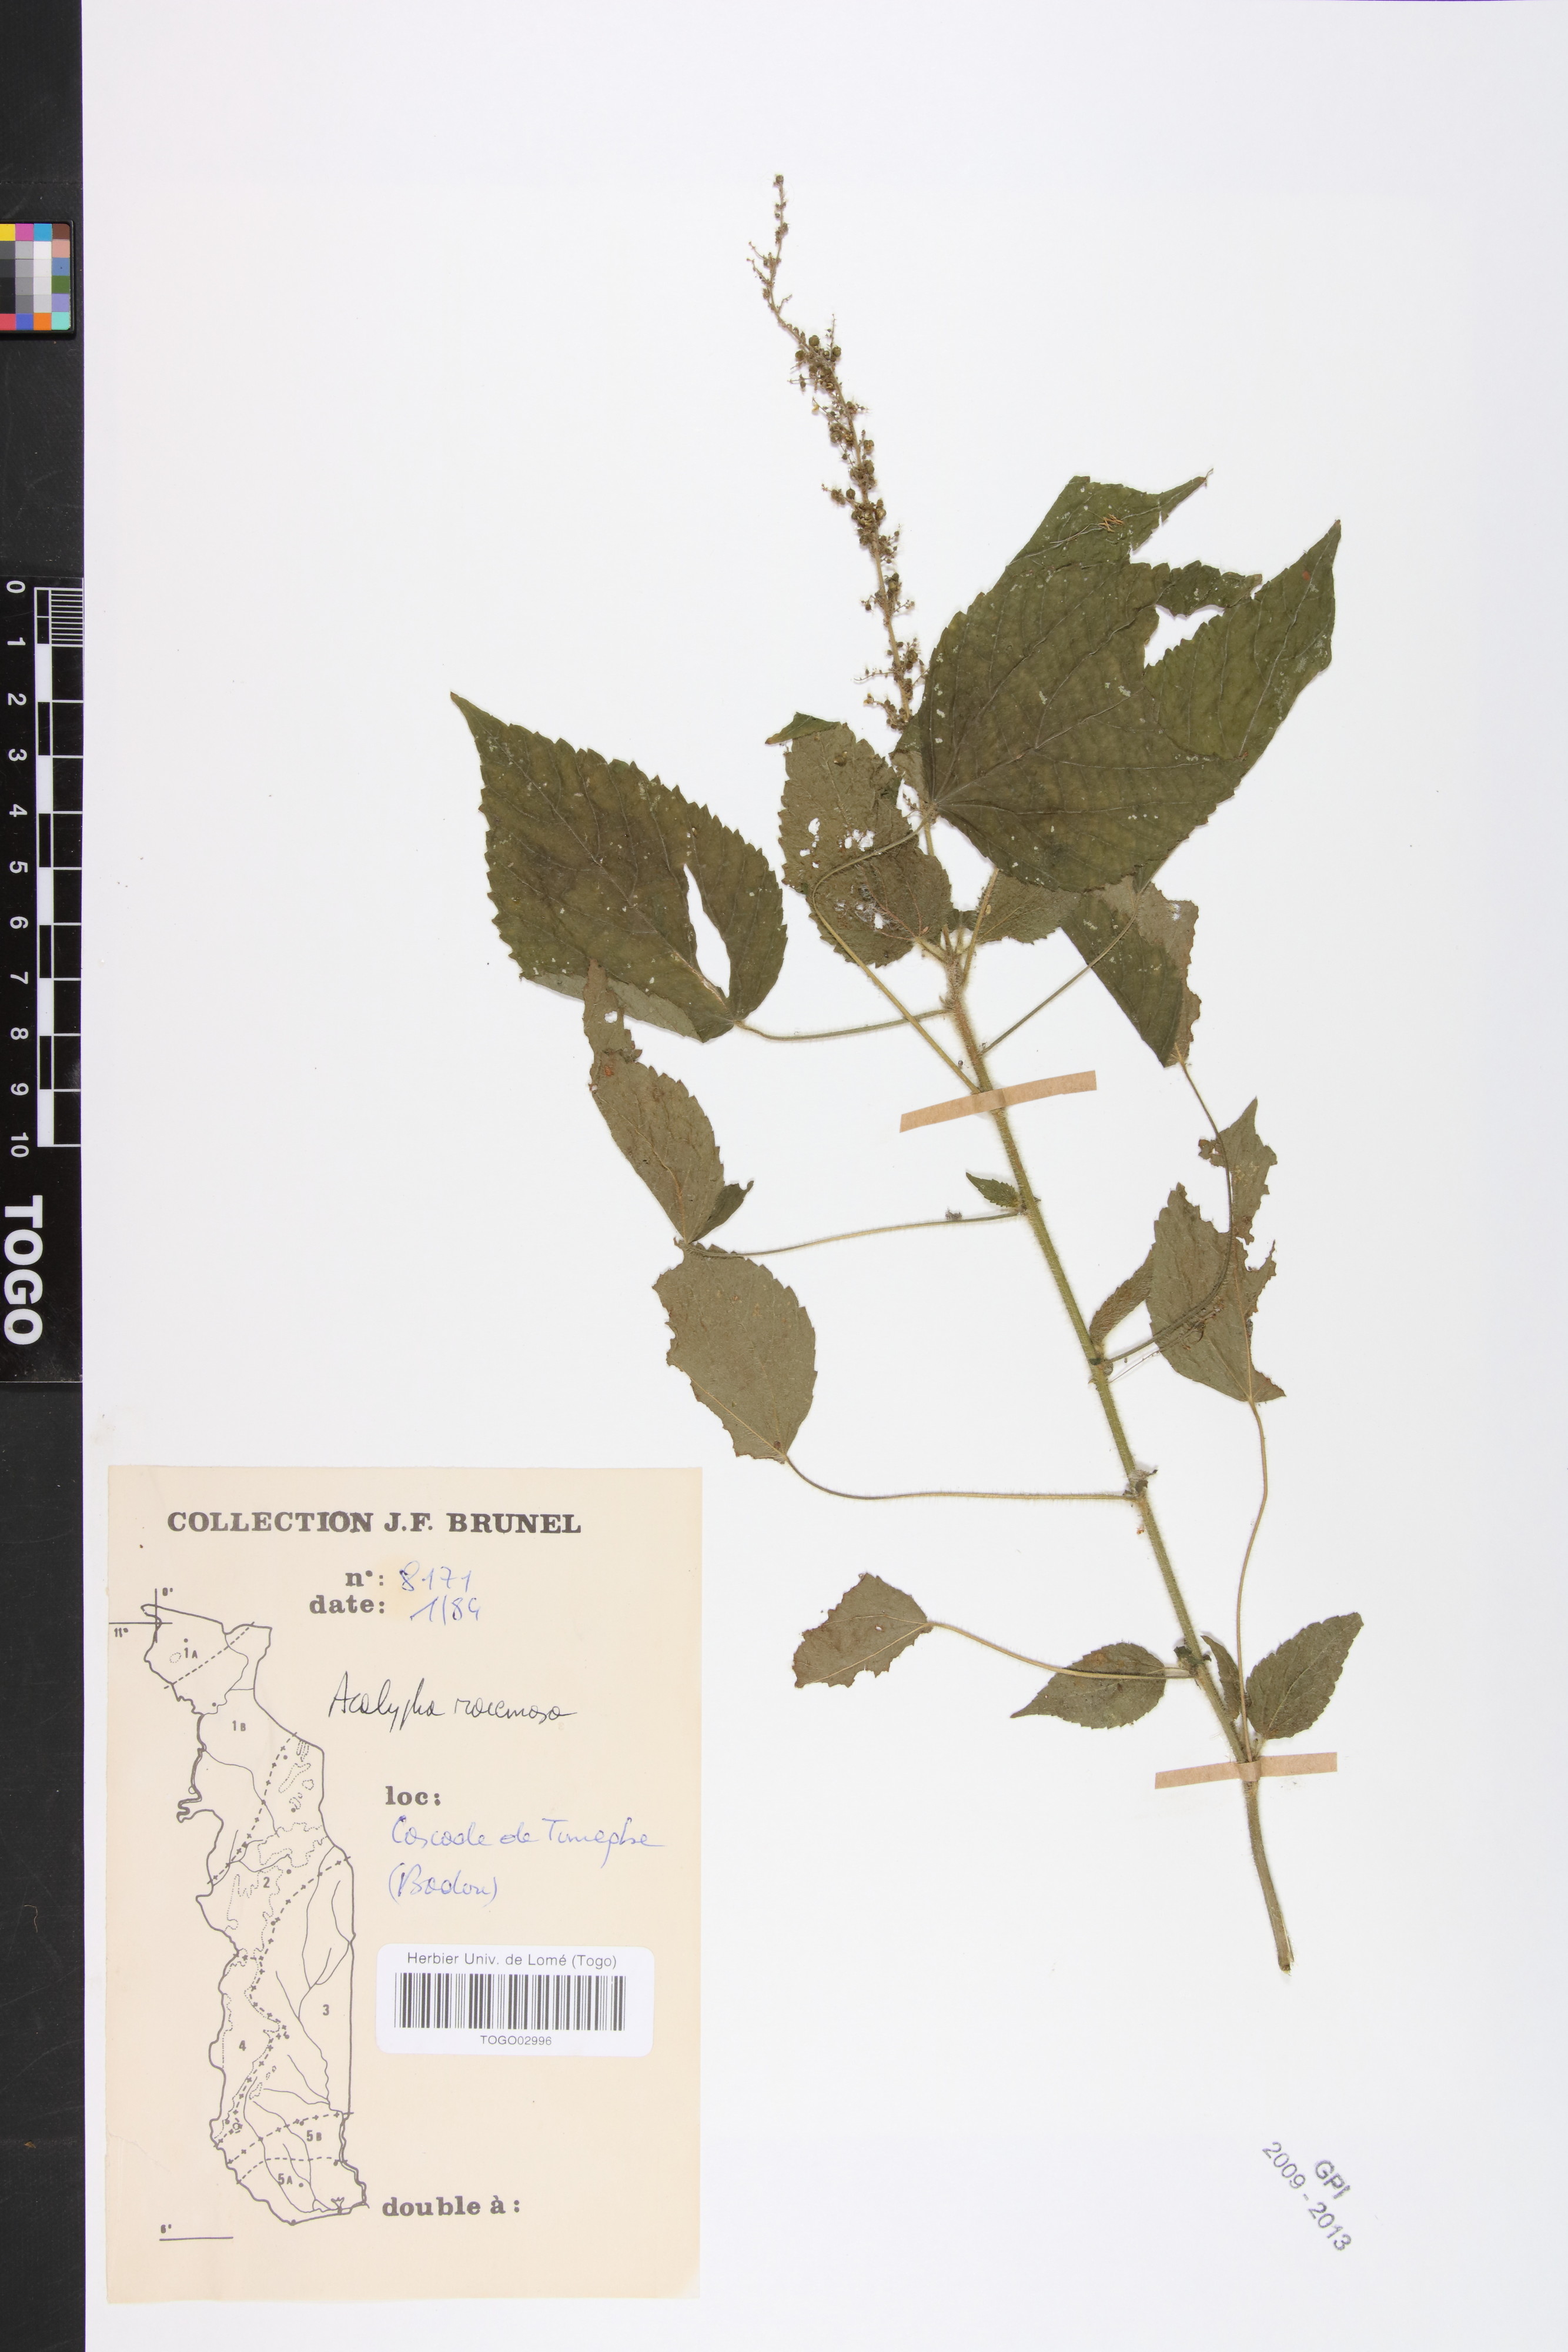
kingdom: Plantae
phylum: Tracheophyta
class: Magnoliopsida
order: Malpighiales
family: Euphorbiaceae
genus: Acalypha
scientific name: Acalypha paniculata
